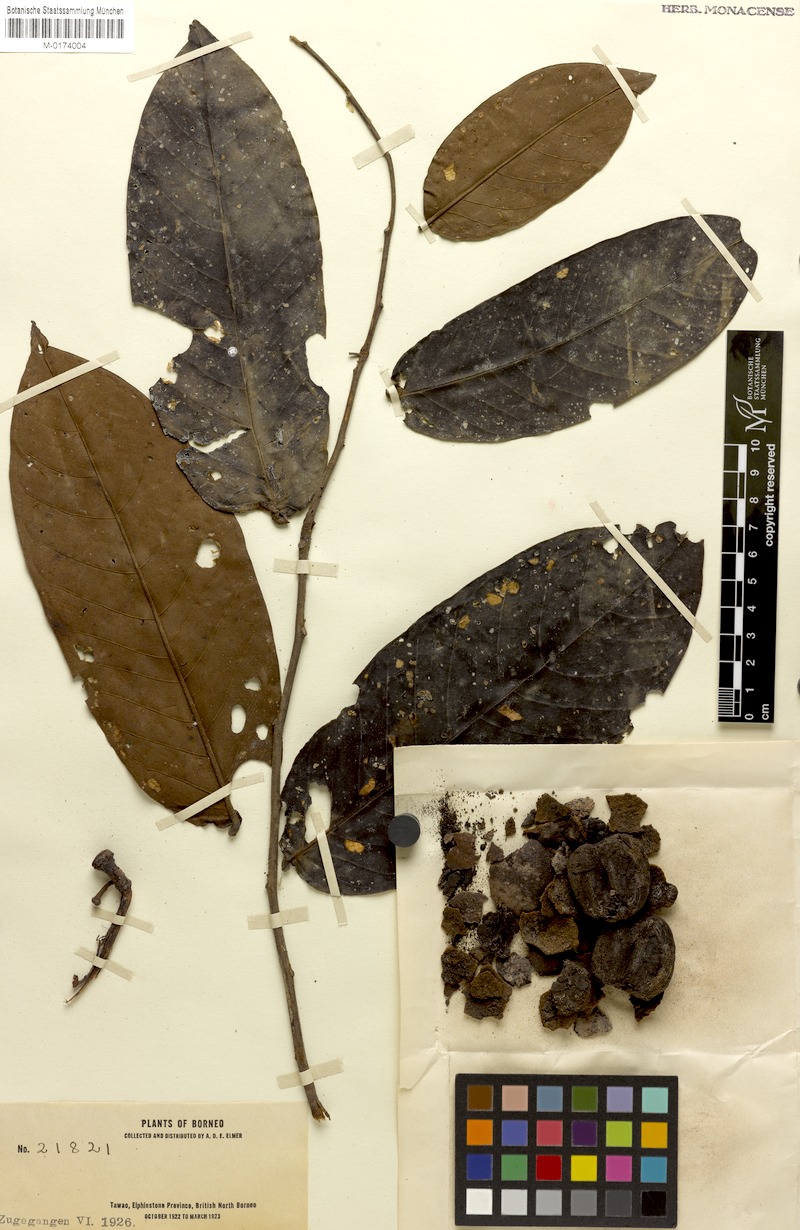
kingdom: Plantae
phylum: Tracheophyta
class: Magnoliopsida
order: Ericales
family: Ebenaceae
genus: Diospyros
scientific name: Diospyros macrophylla
